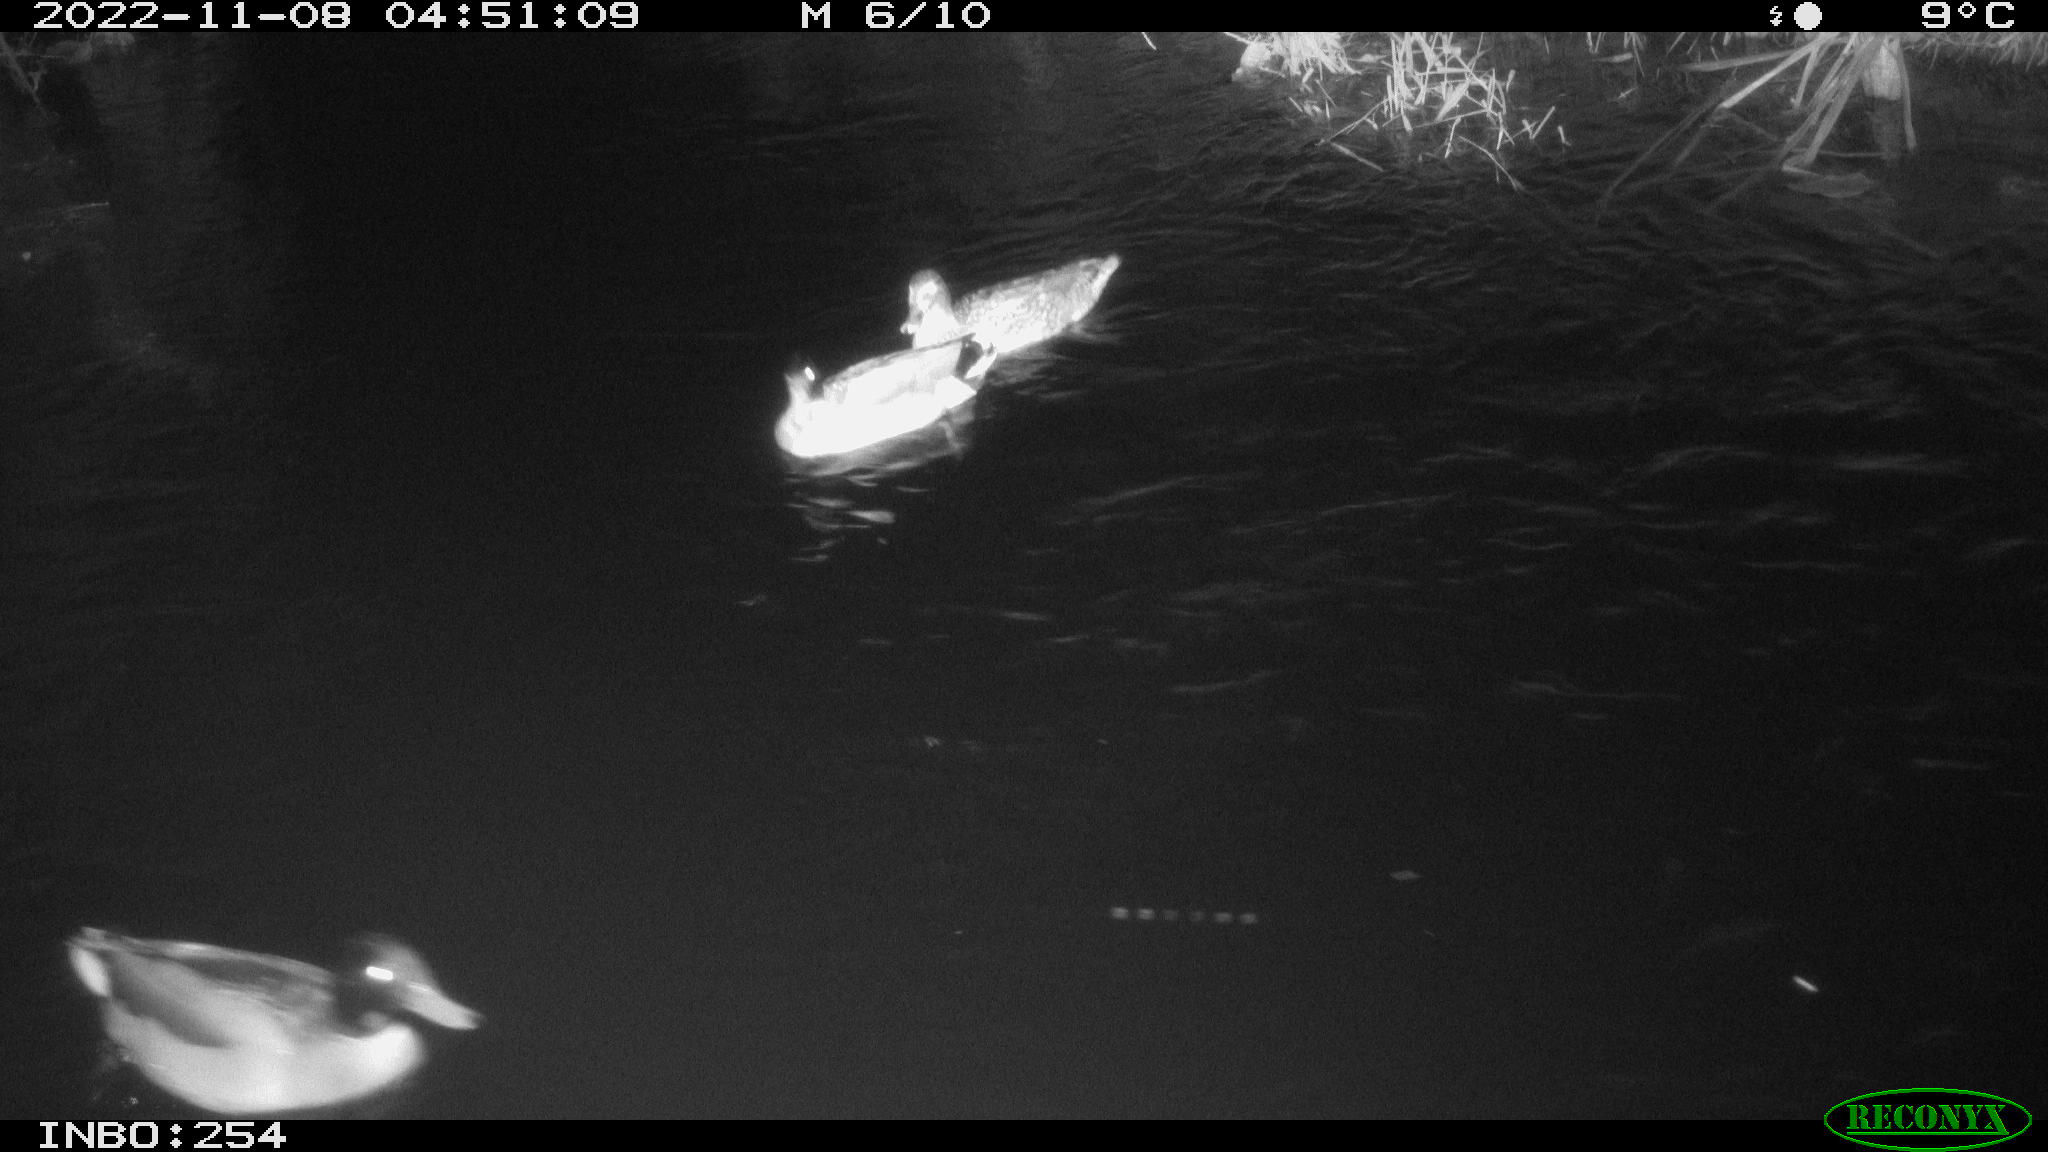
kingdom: Animalia
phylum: Chordata
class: Aves
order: Anseriformes
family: Anatidae
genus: Anas
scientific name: Anas
